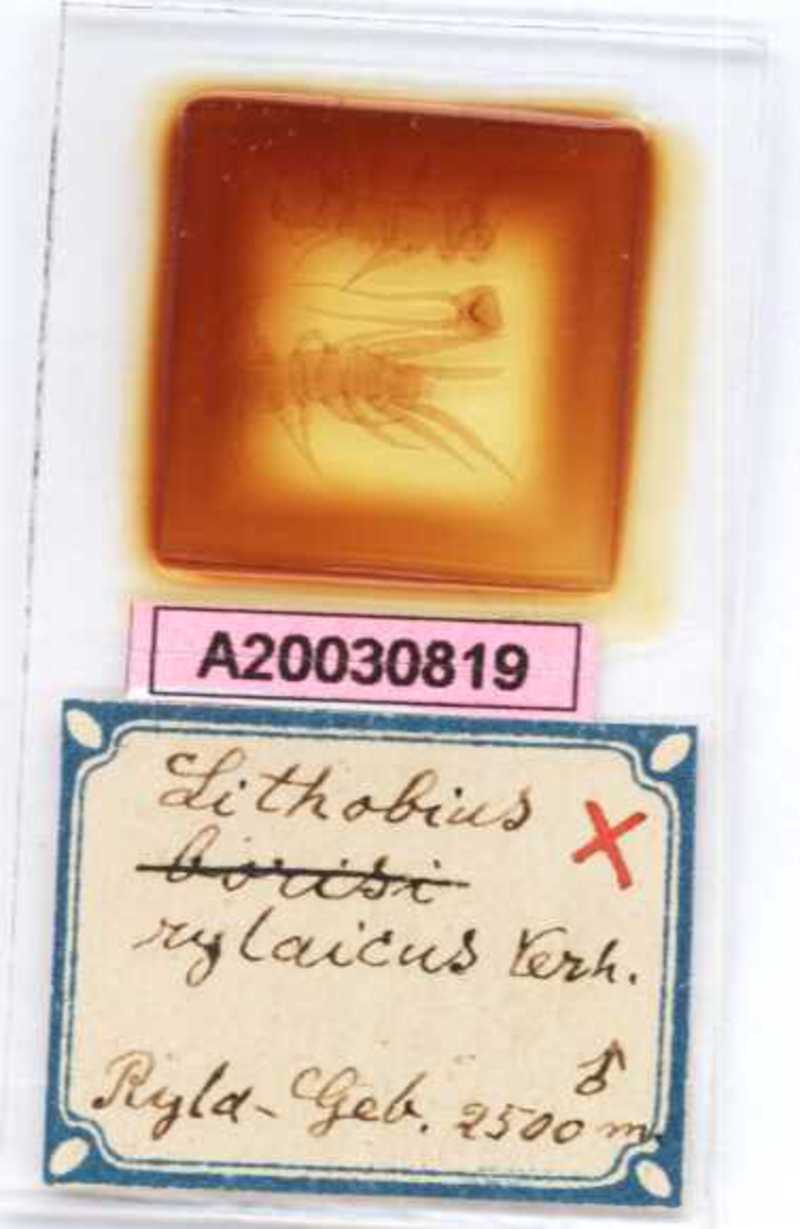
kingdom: Animalia
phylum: Arthropoda
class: Chilopoda
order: Lithobiomorpha
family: Lithobiidae
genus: Lithobius
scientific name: Lithobius rylaicus
